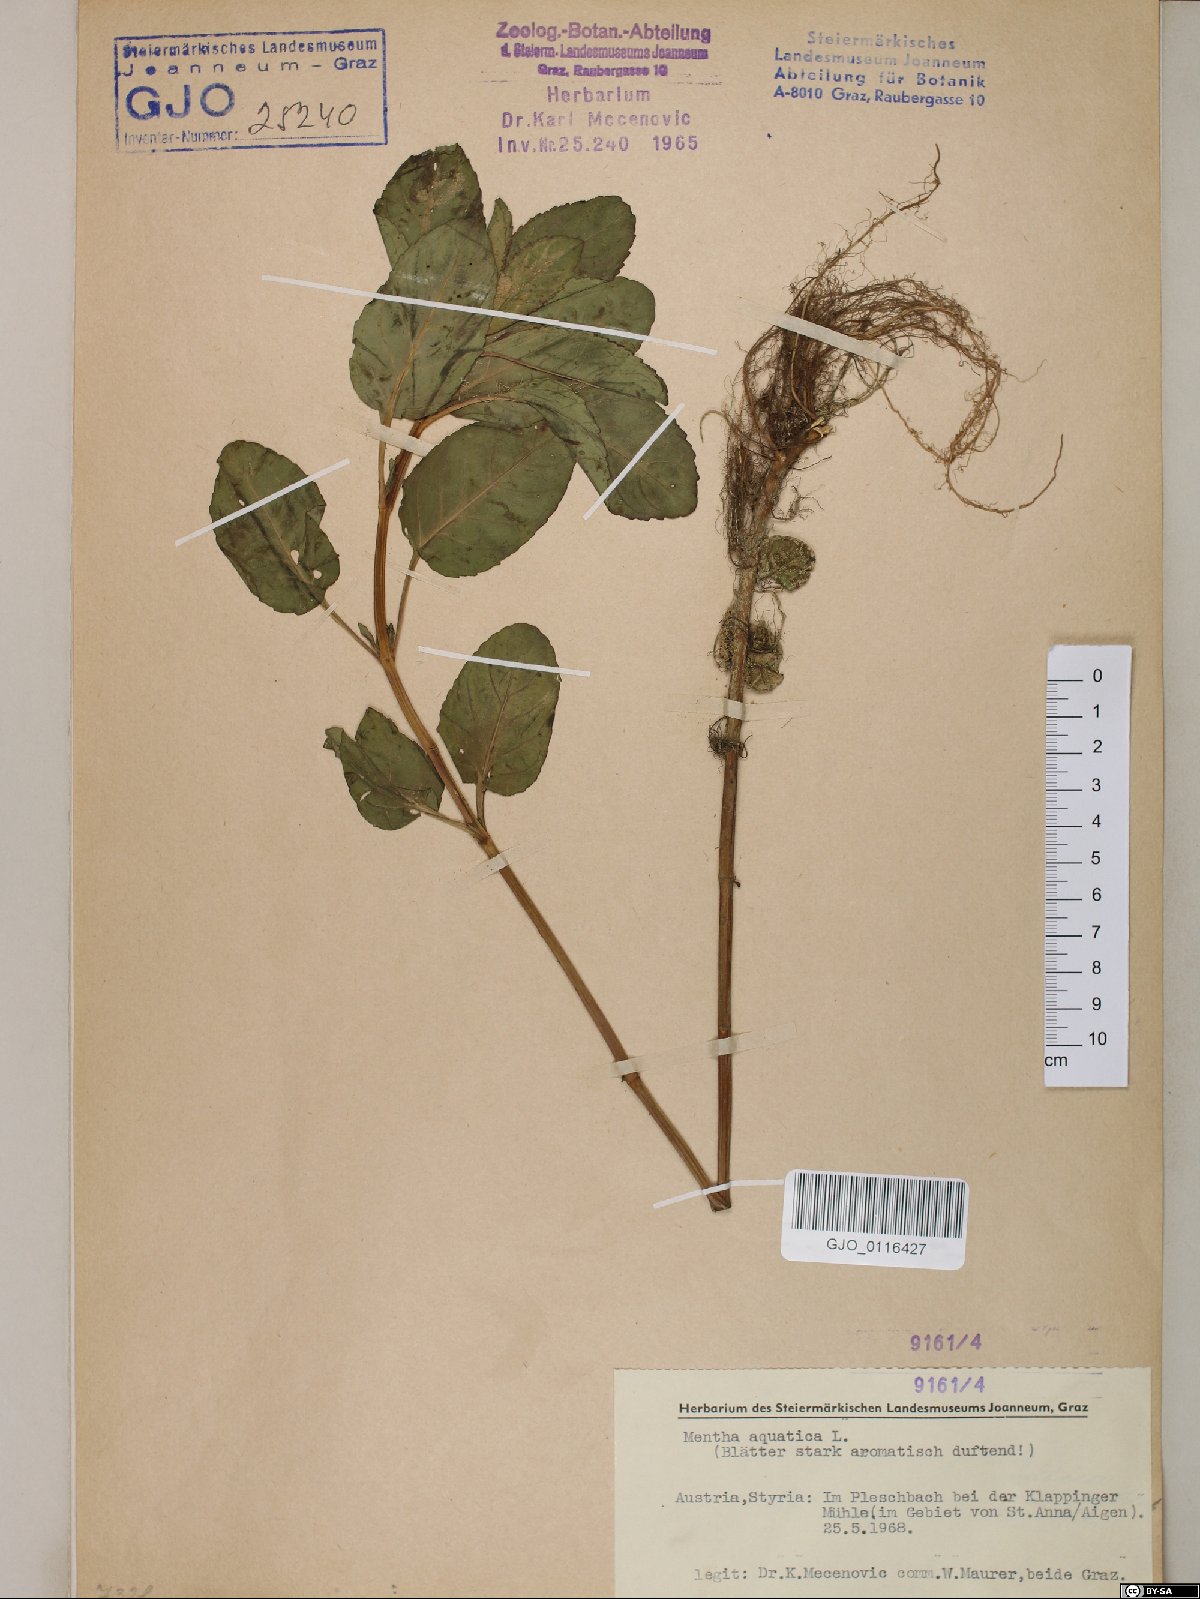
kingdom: Plantae
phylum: Tracheophyta
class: Magnoliopsida
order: Lamiales
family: Lamiaceae
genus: Mentha
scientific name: Mentha aquatica
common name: Water mint
